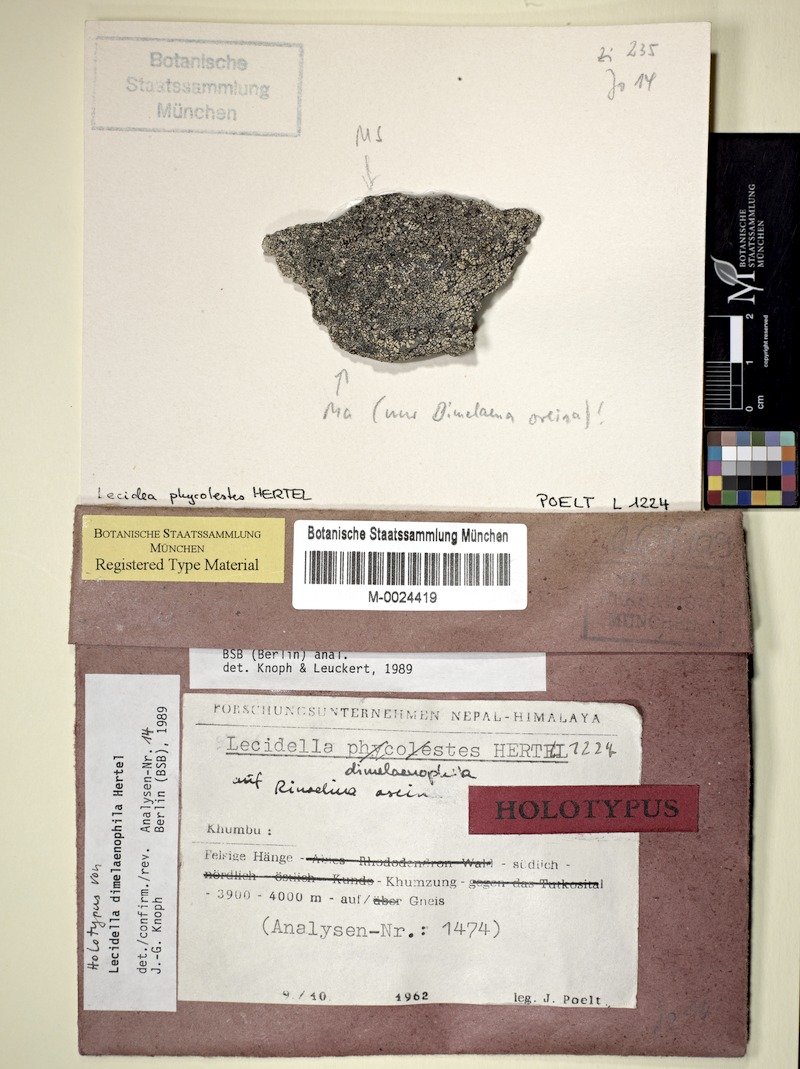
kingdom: Fungi
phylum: Ascomycota
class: Lecanoromycetes
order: Lecanorales
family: Lecanoraceae
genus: Lecidella
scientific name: Lecidella dimelaenophila
